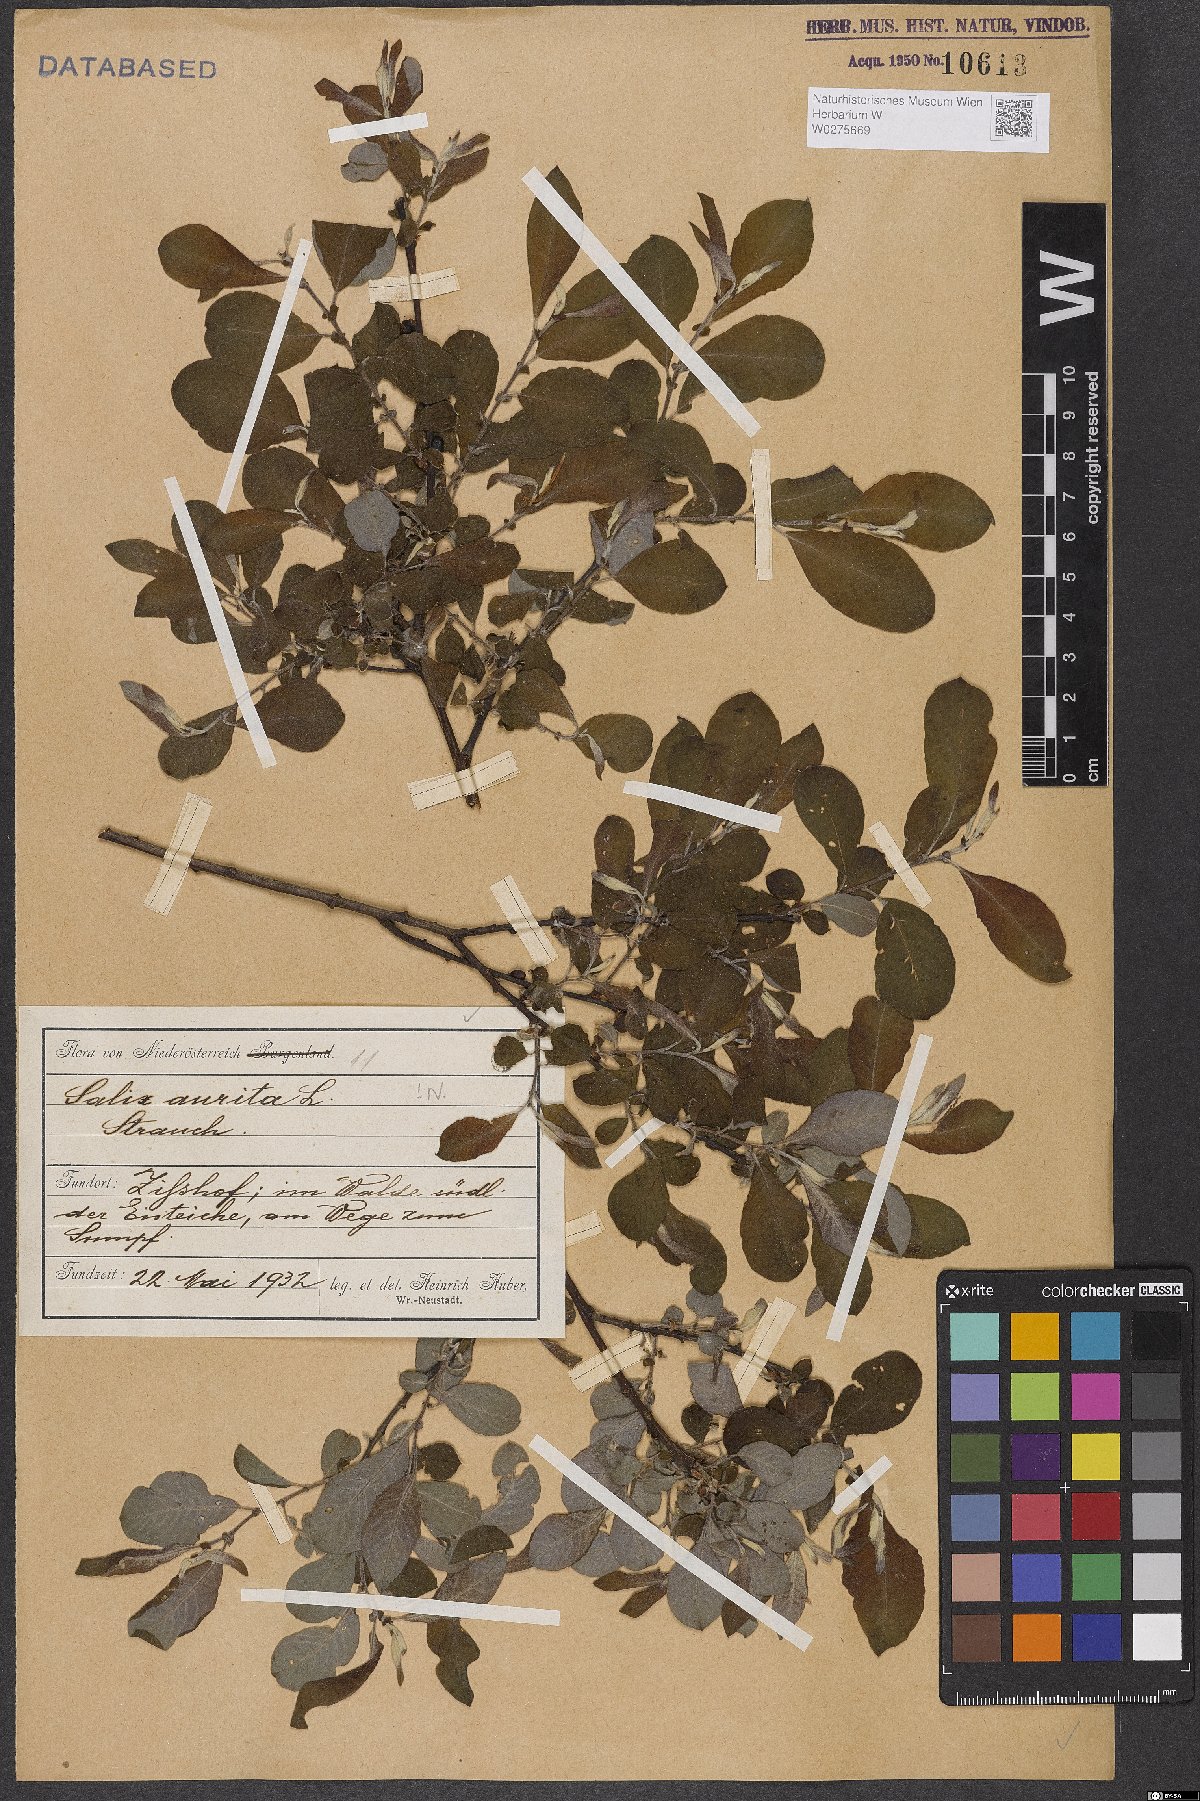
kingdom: Plantae
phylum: Tracheophyta
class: Magnoliopsida
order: Malpighiales
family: Salicaceae
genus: Salix
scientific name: Salix aurita
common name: Eared willow
